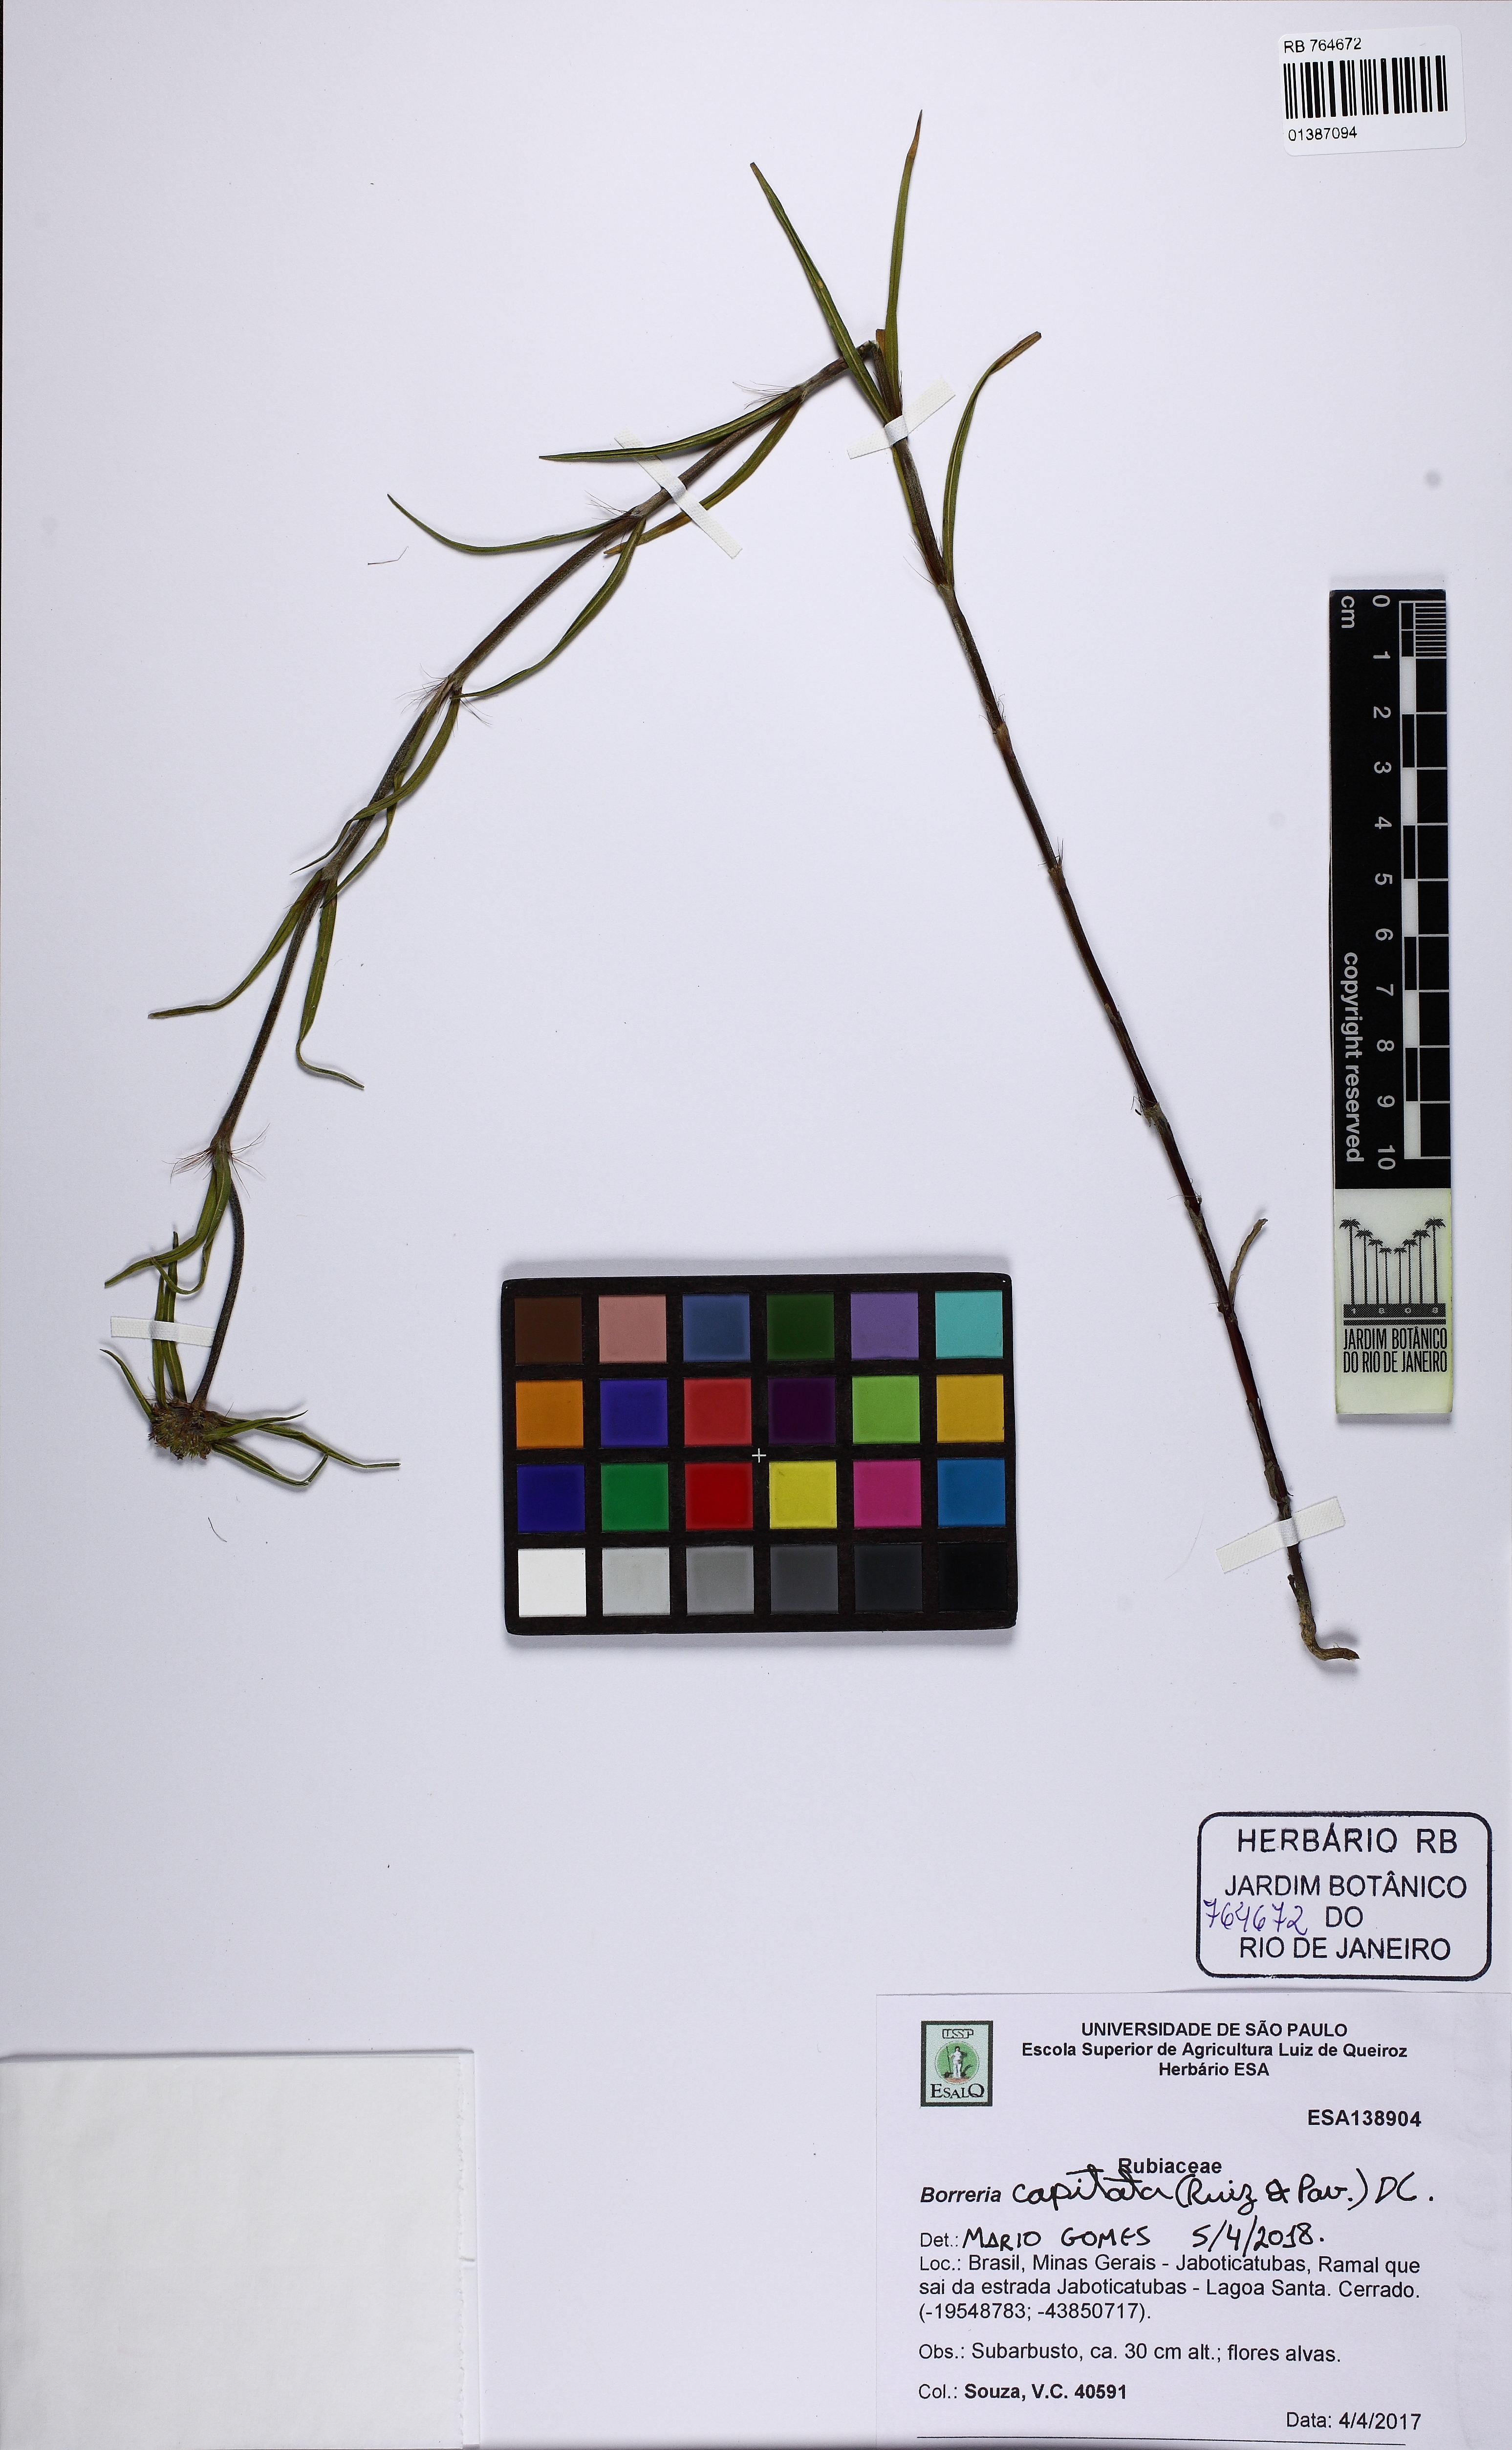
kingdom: Plantae
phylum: Tracheophyta
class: Magnoliopsida
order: Gentianales
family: Rubiaceae
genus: Spermacoce
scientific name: Spermacoce capitata
